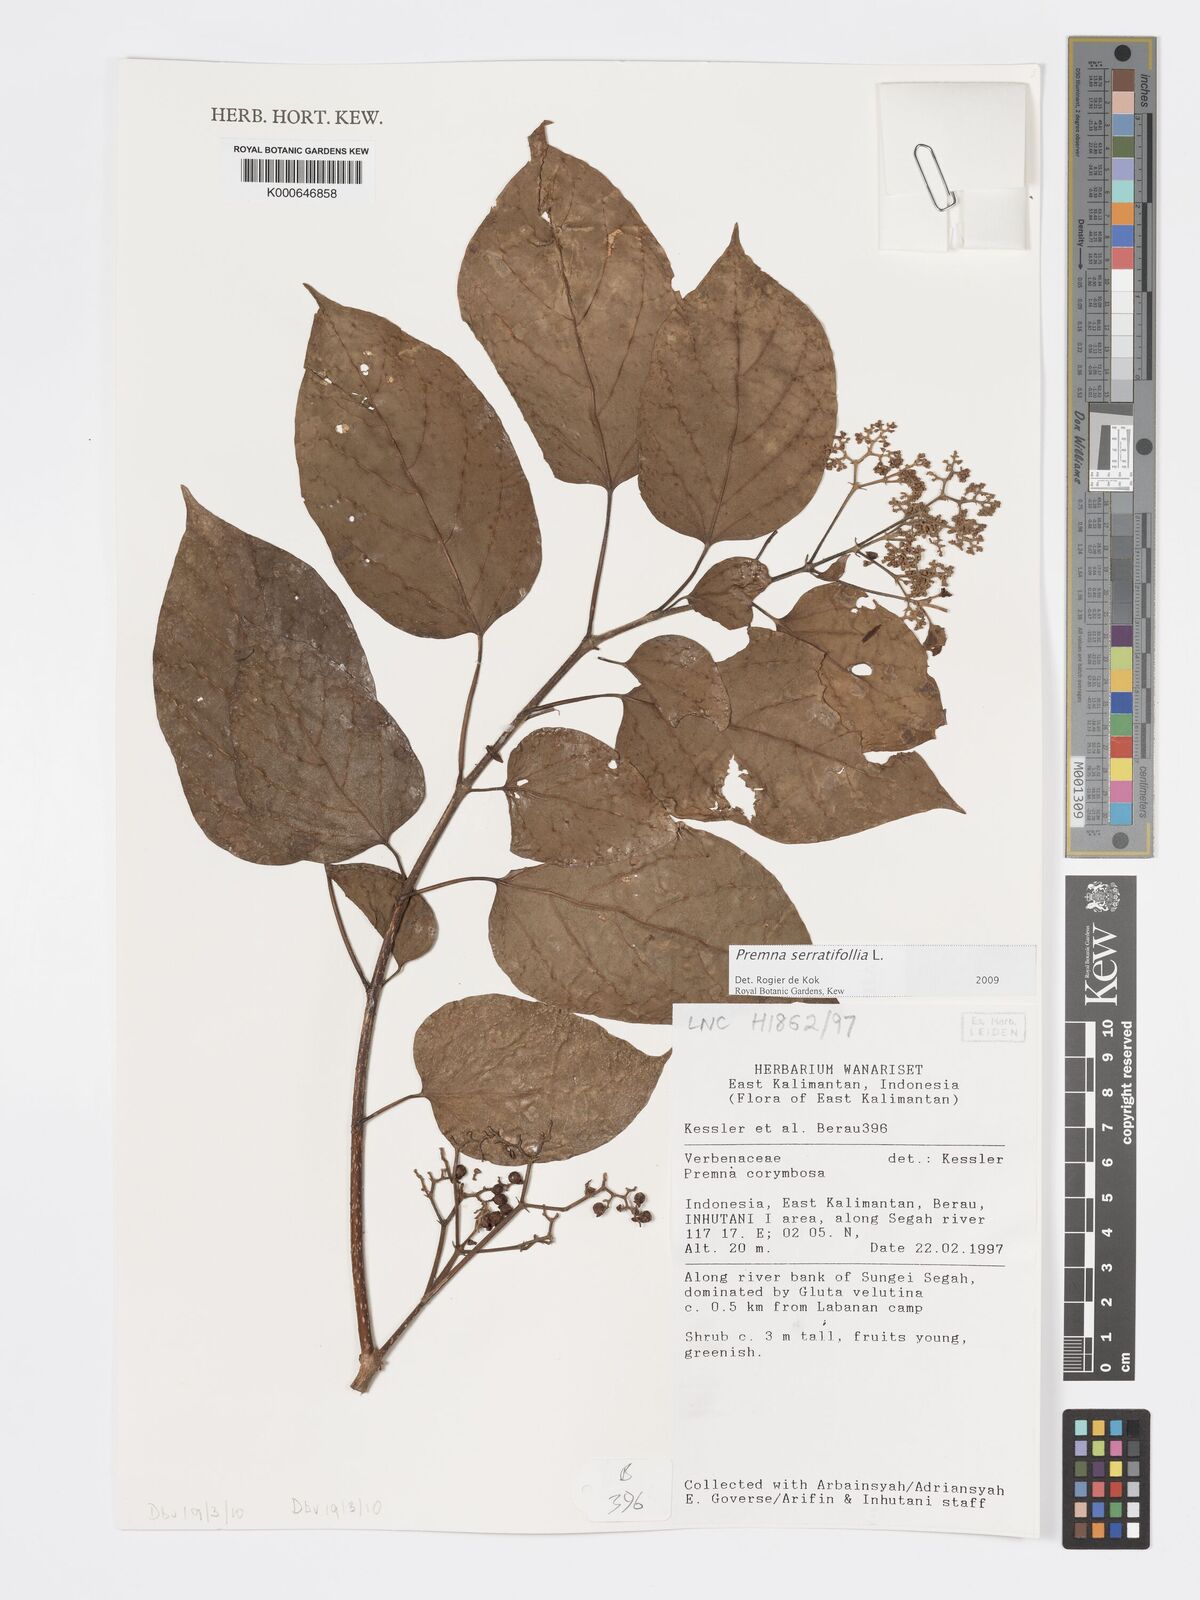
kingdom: Plantae
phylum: Tracheophyta
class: Magnoliopsida
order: Lamiales
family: Lamiaceae
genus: Premna
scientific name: Premna serratifolia
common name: Bastard guelder
